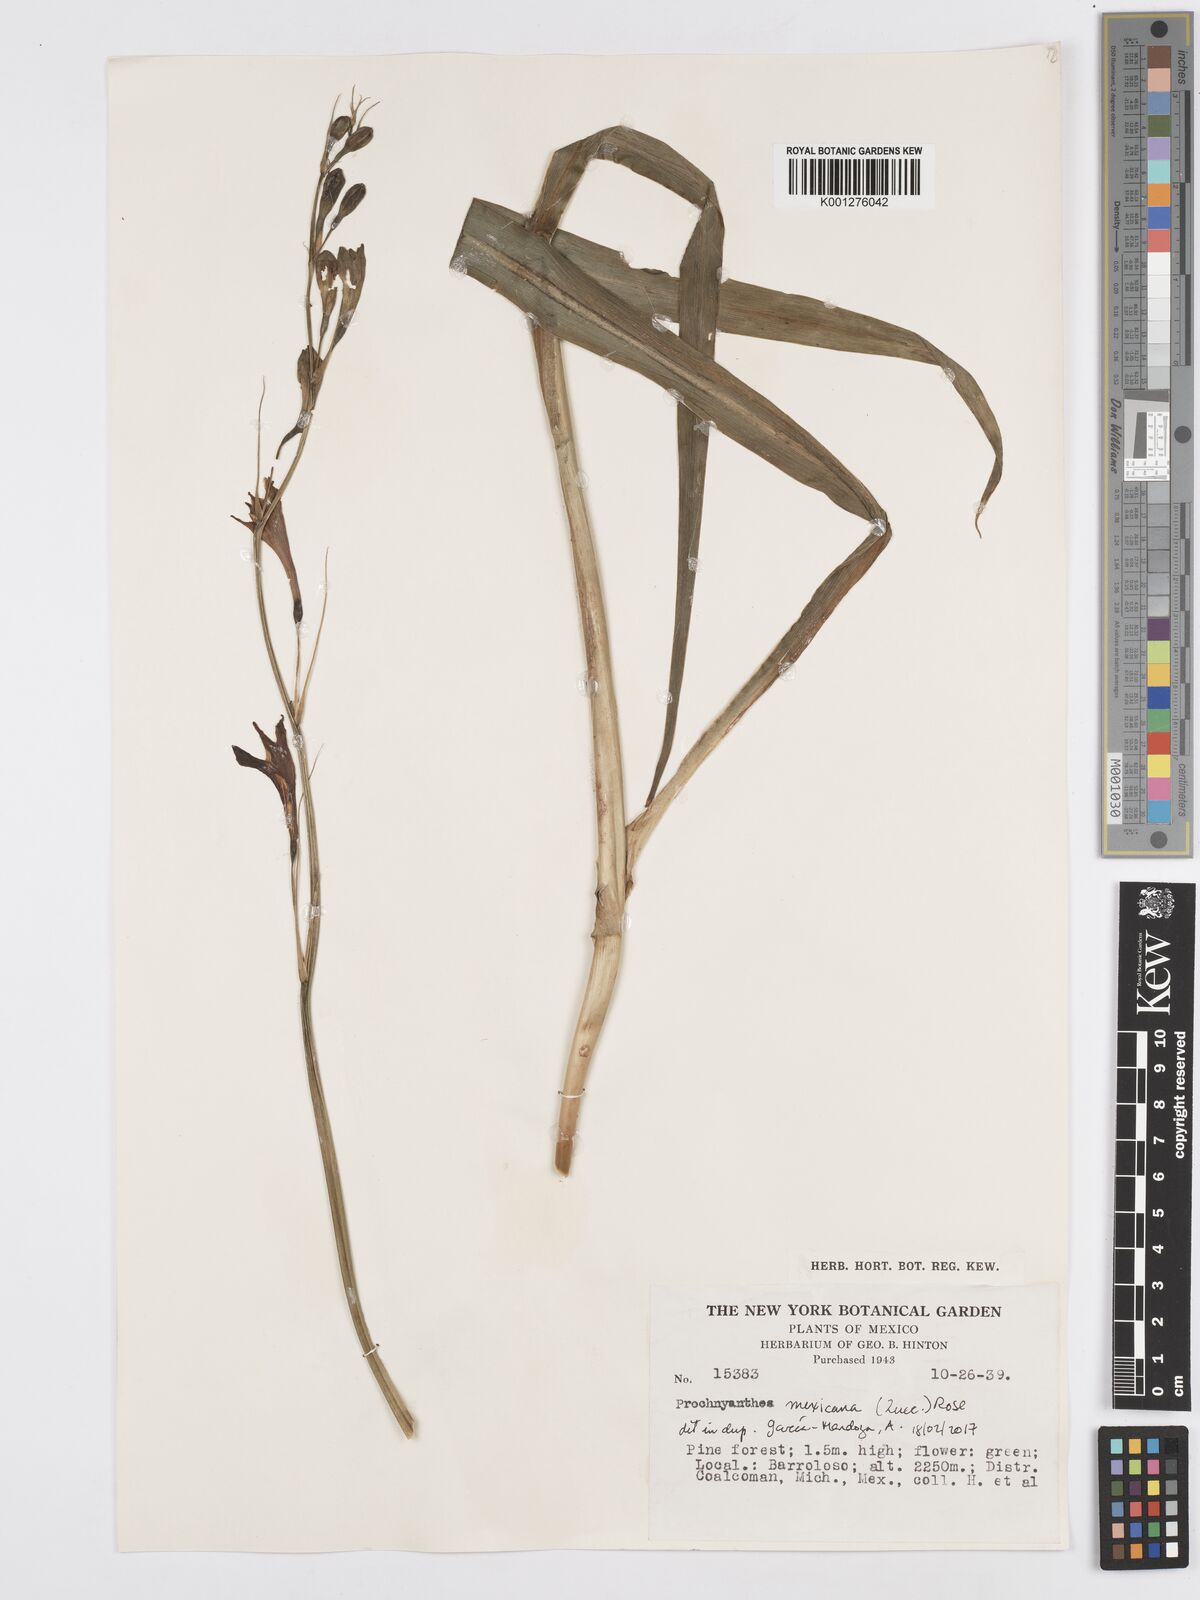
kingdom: Plantae
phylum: Tracheophyta
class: Liliopsida
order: Asparagales
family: Asparagaceae
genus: Agave
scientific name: Agave
